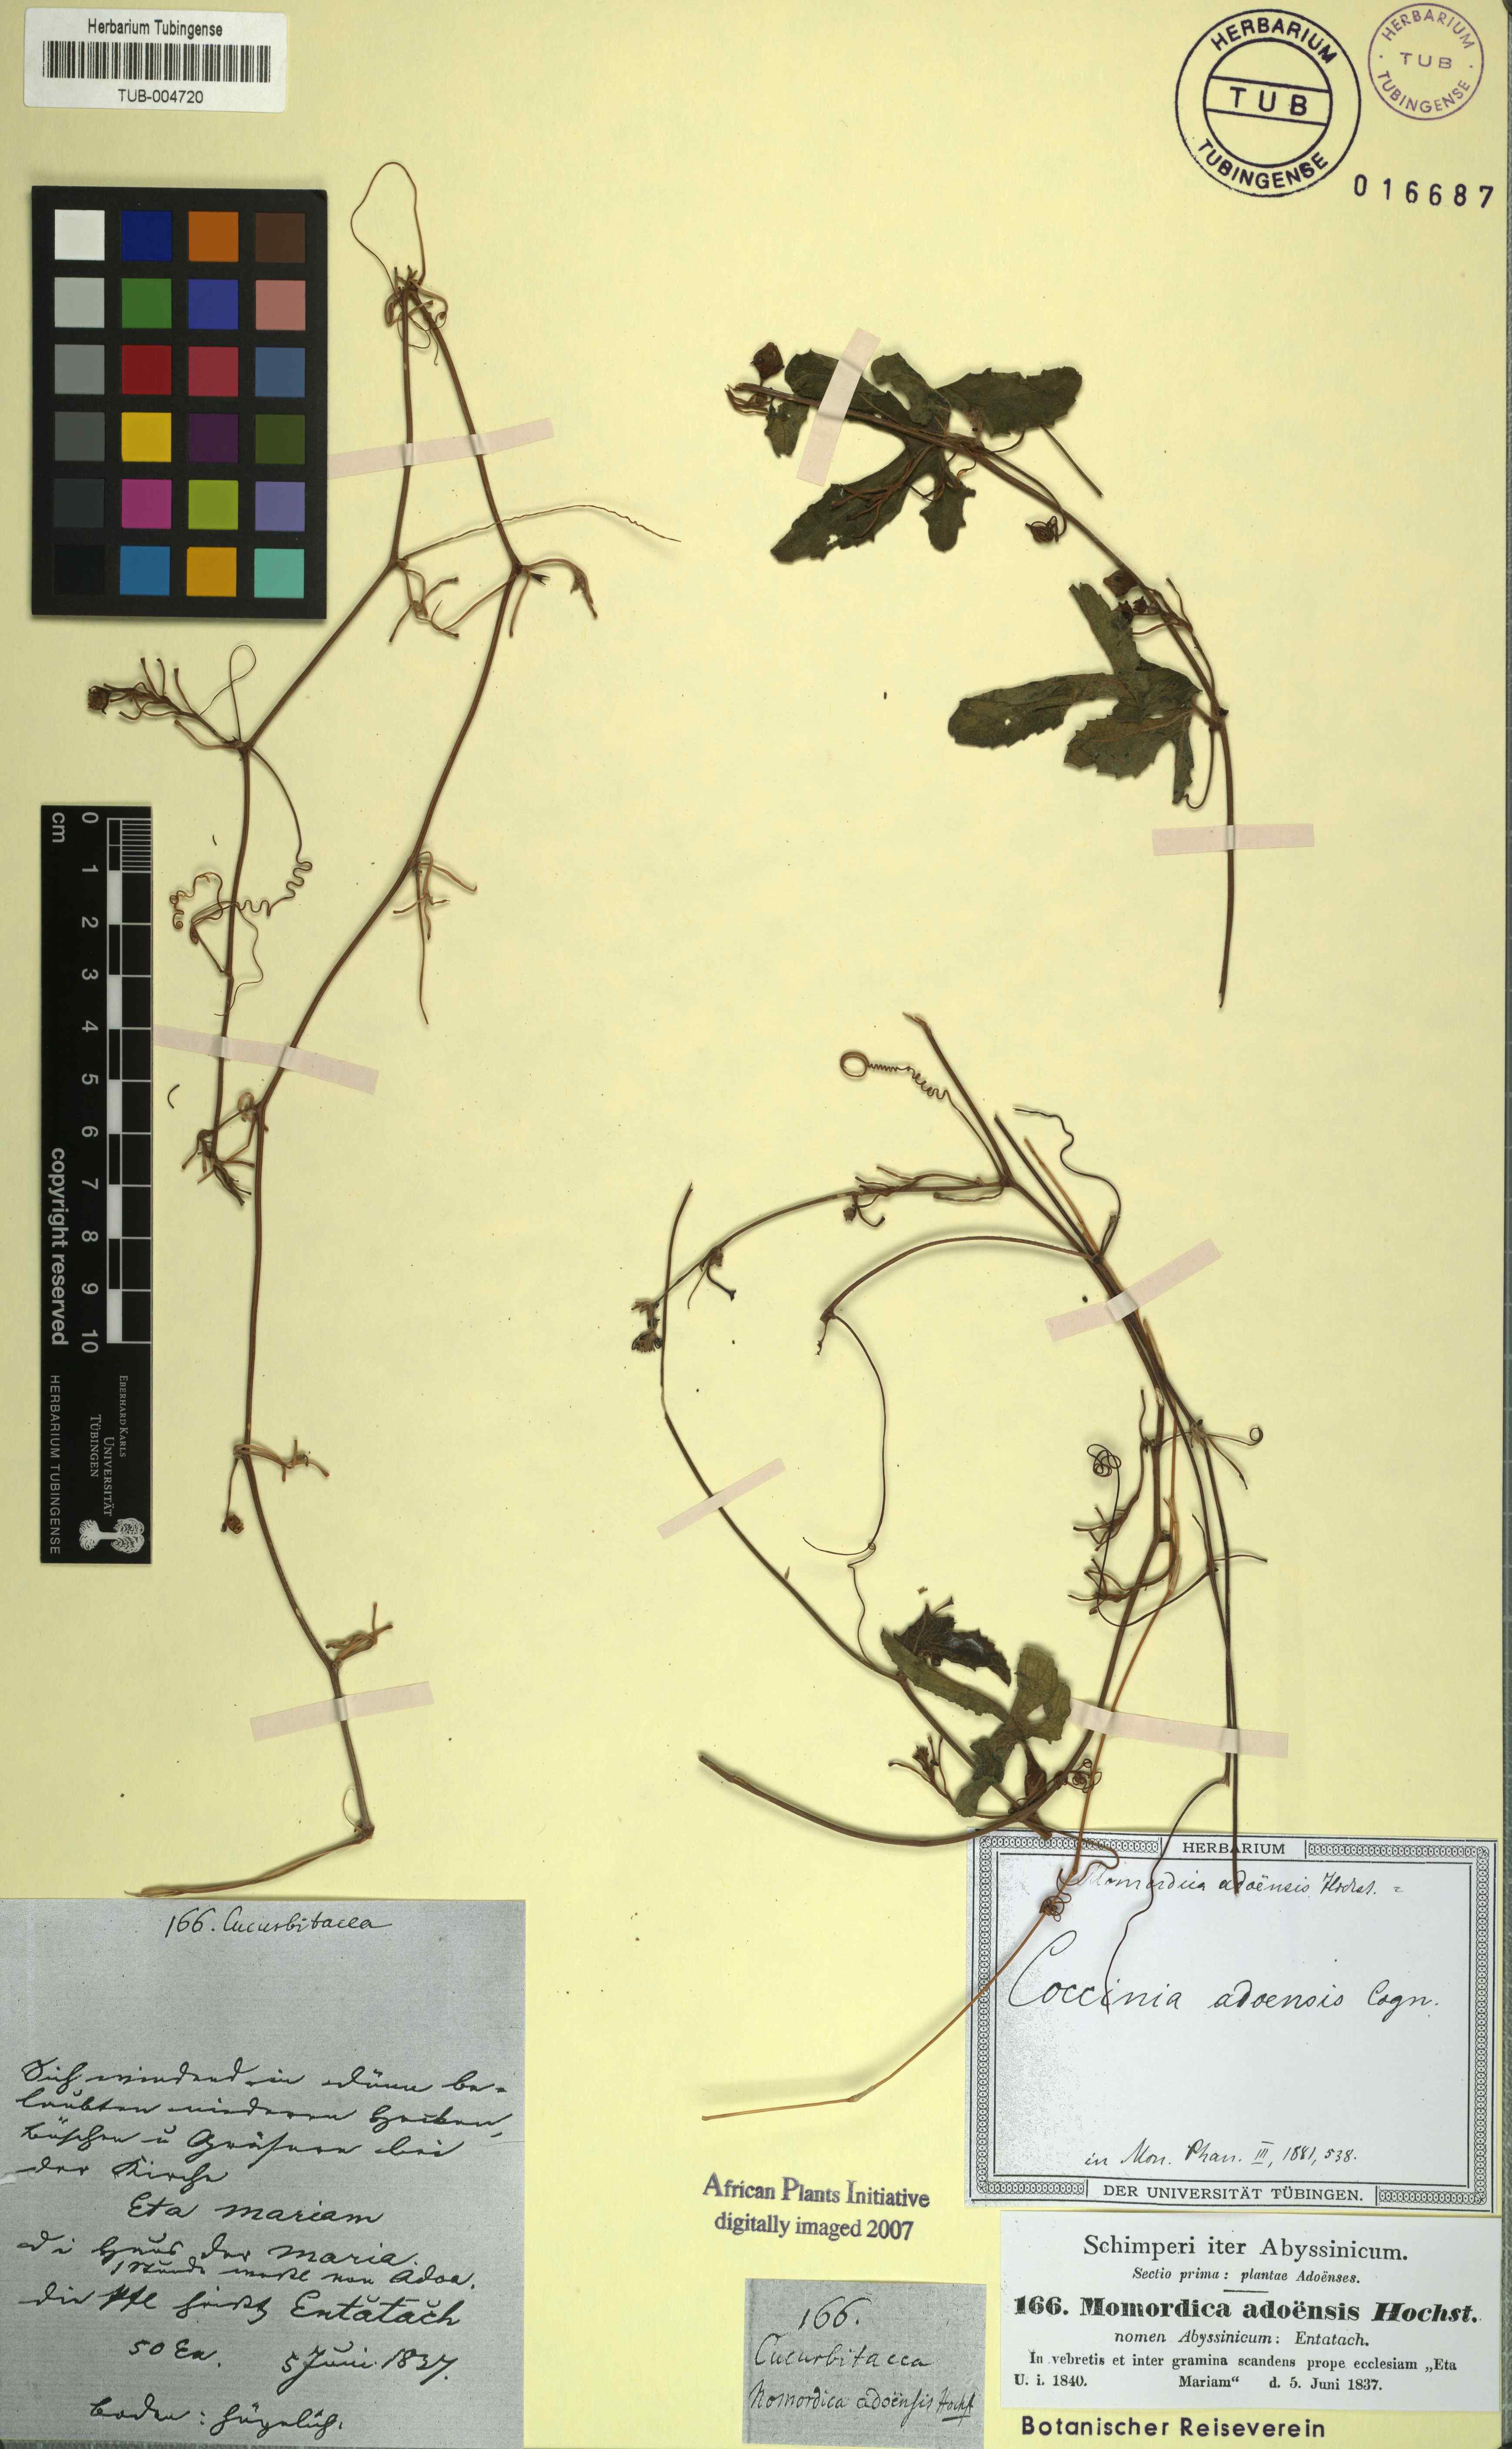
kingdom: Plantae
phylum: Tracheophyta
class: Magnoliopsida
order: Cucurbitales
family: Cucurbitaceae
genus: Coccinia
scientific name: Coccinia adoensis
